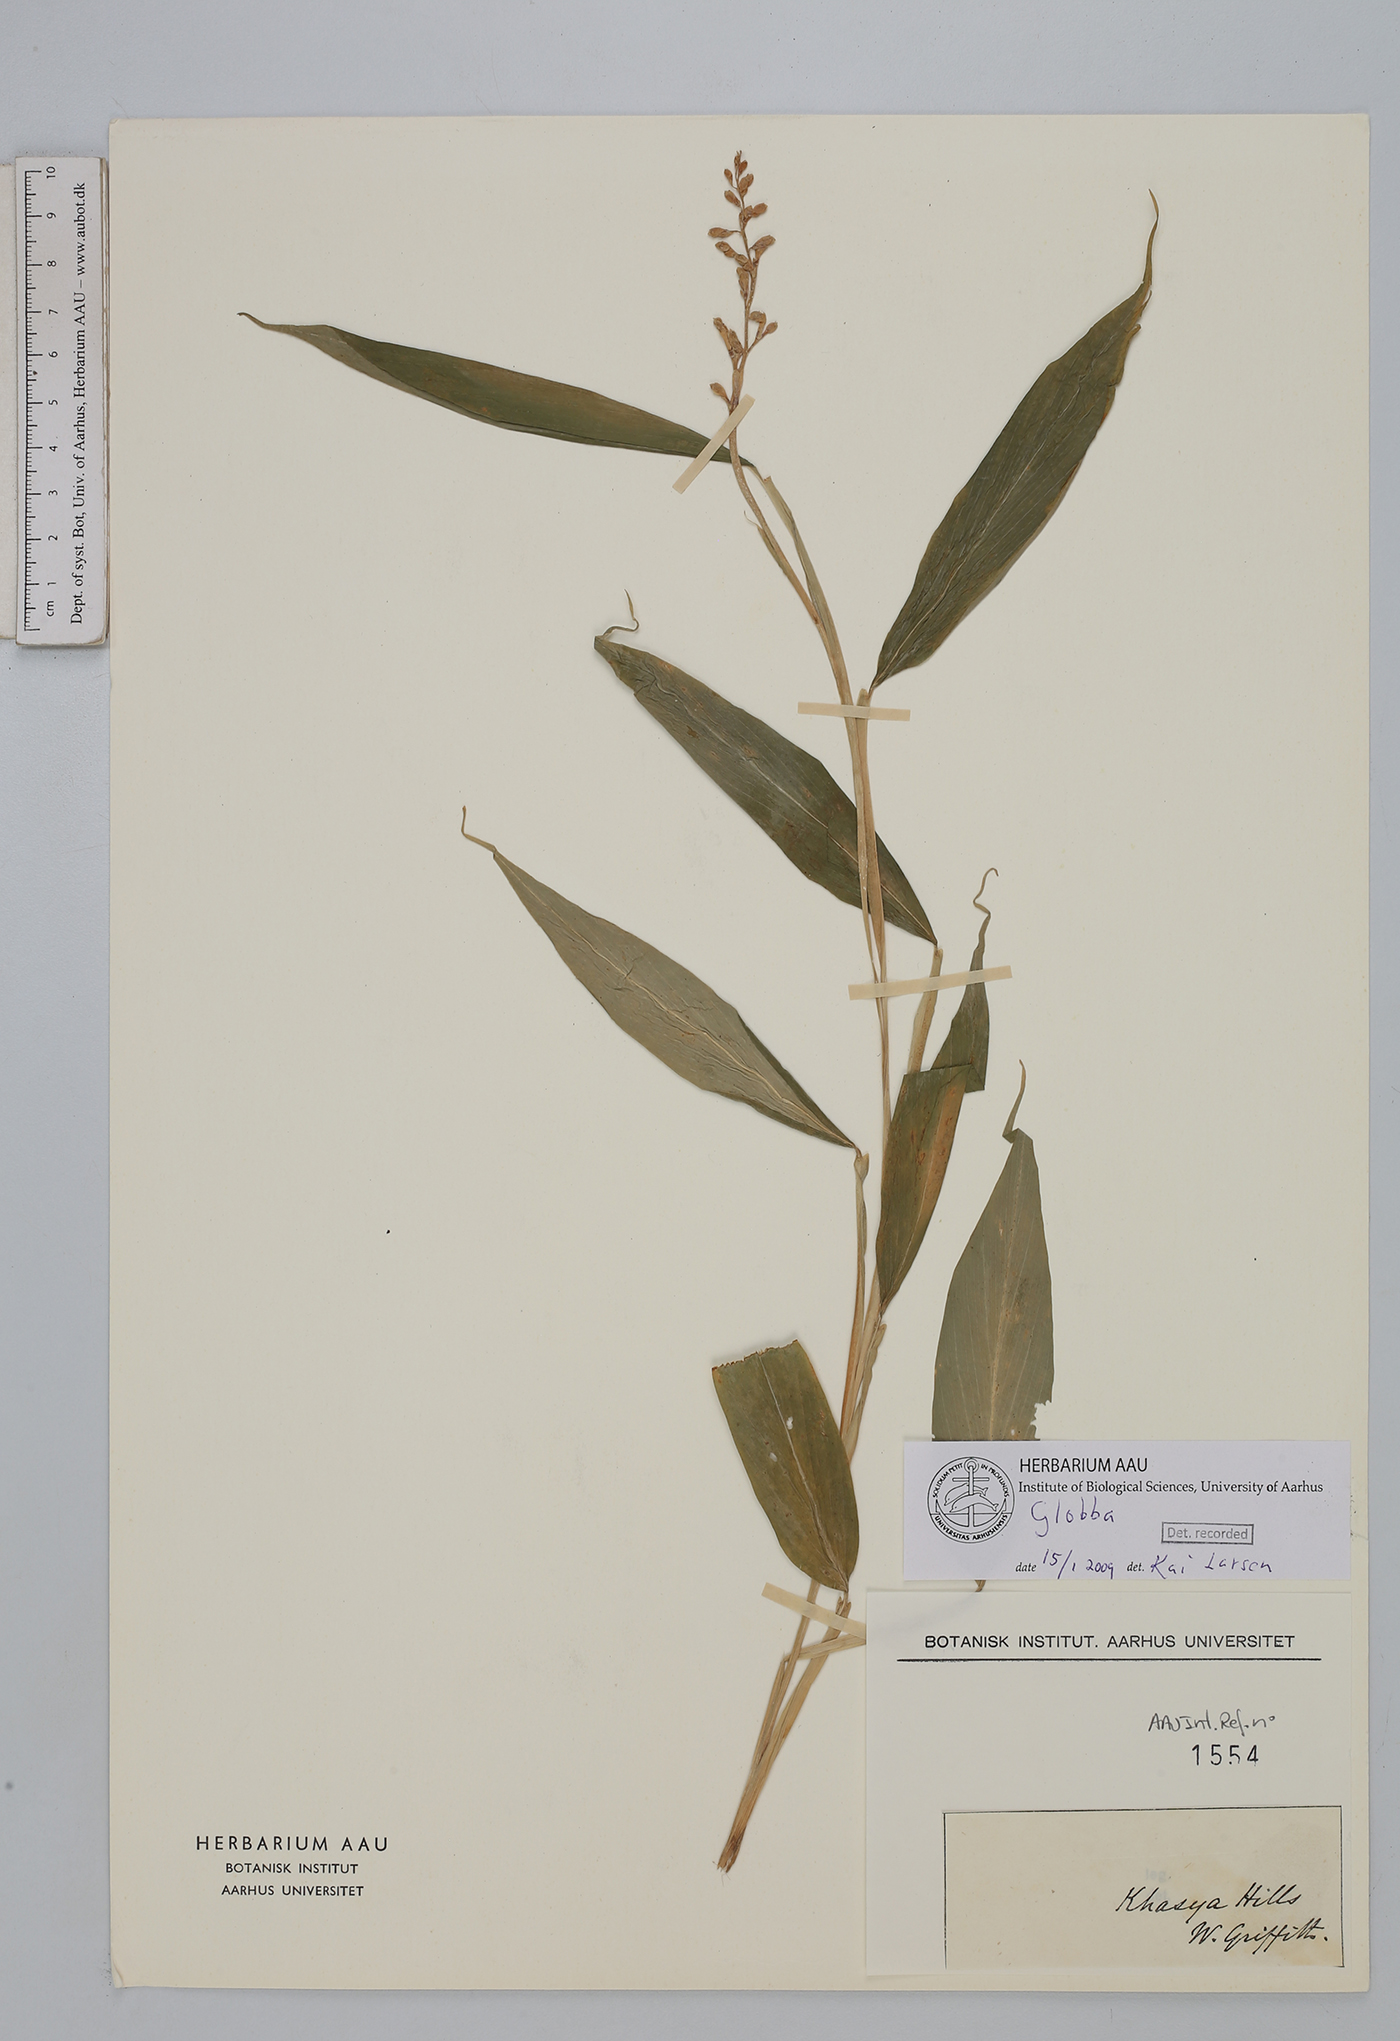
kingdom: Plantae
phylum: Tracheophyta
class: Liliopsida
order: Zingiberales
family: Zingiberaceae
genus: Globba
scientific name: Globba
